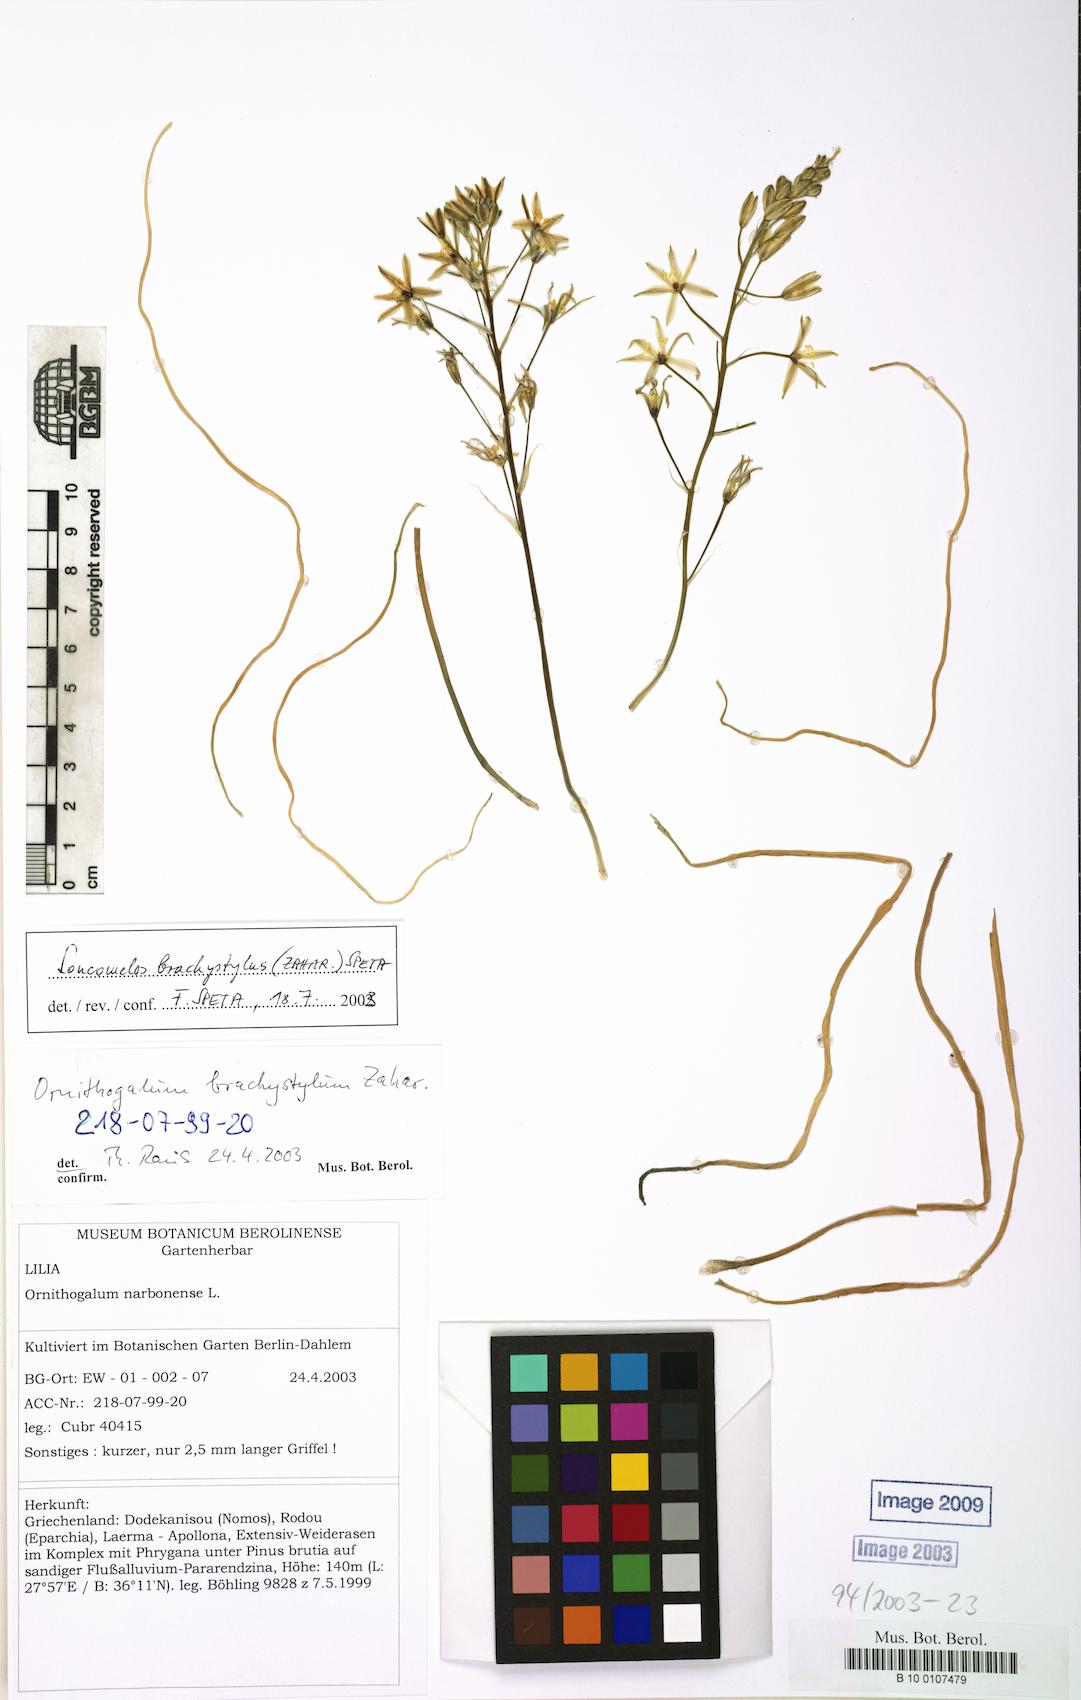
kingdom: Plantae
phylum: Tracheophyta
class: Liliopsida
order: Asparagales
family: Asparagaceae
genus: Ornithogalum
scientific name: Ornithogalum narbonense
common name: Bath-asparagus
